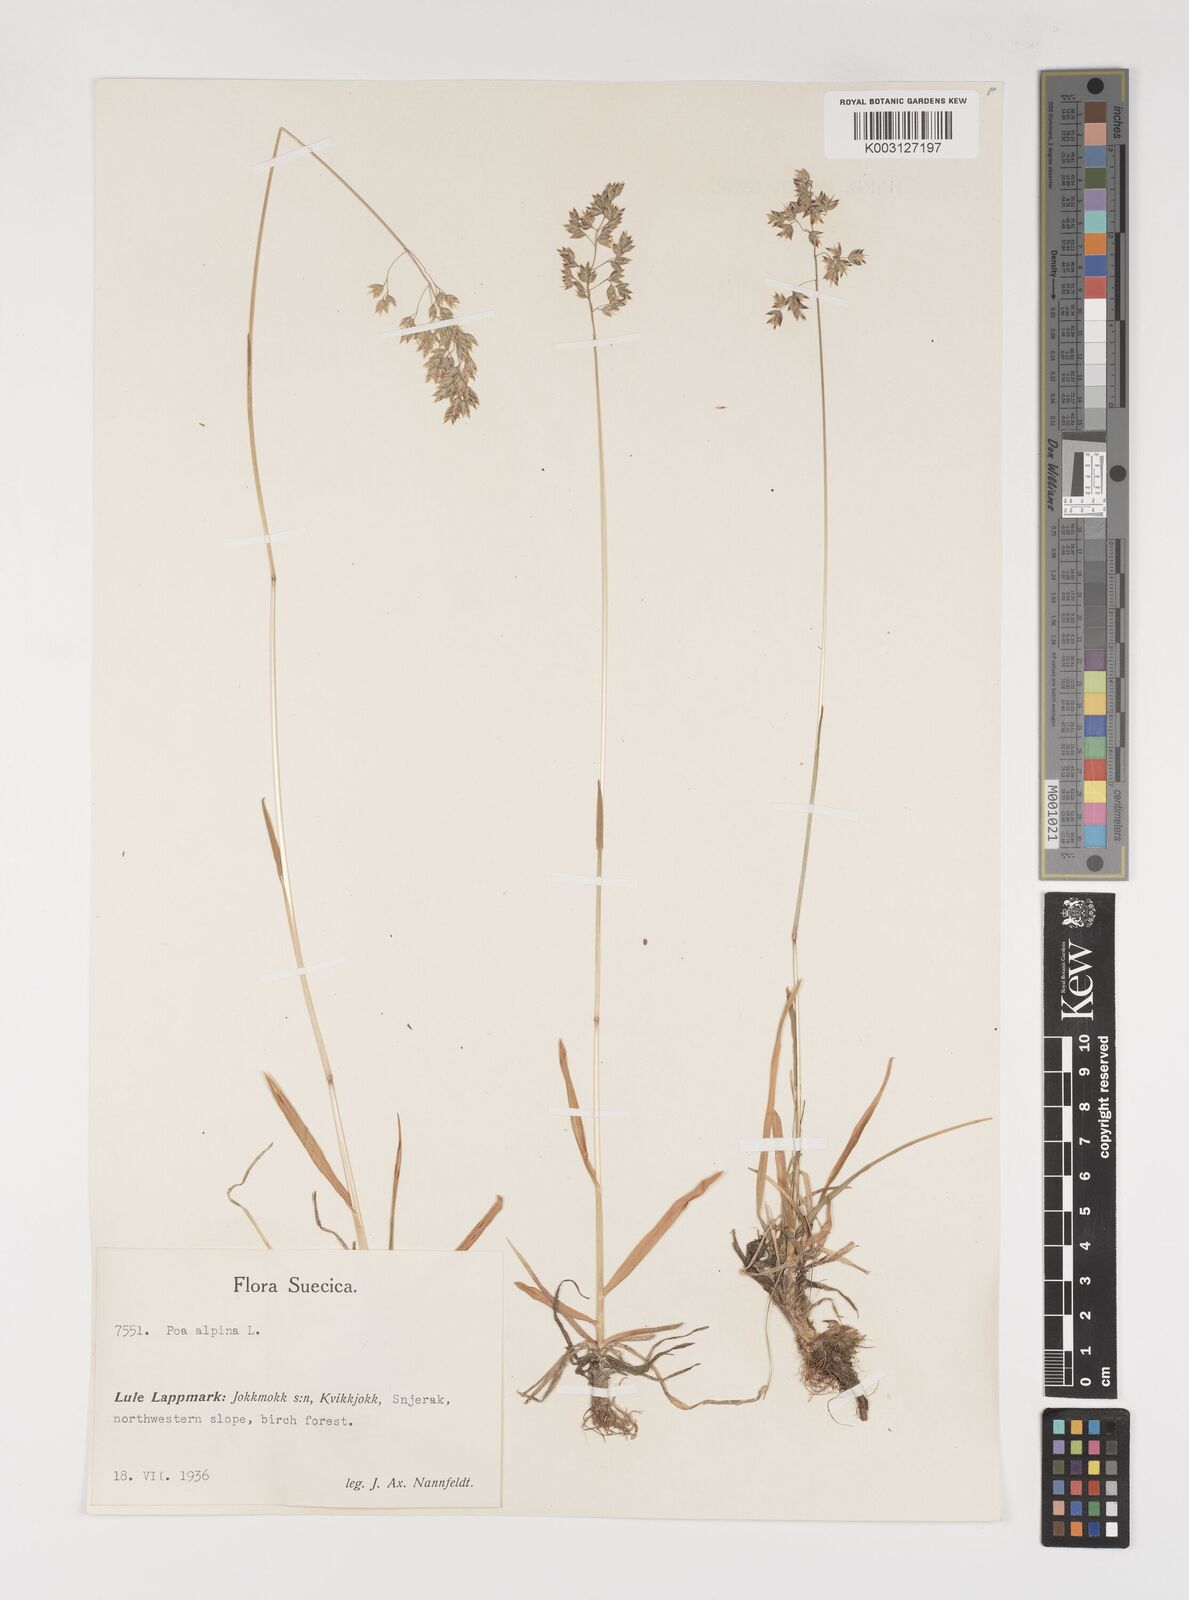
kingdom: Plantae
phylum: Tracheophyta
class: Liliopsida
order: Poales
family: Poaceae
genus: Poa
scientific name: Poa alpina
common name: Alpine bluegrass
